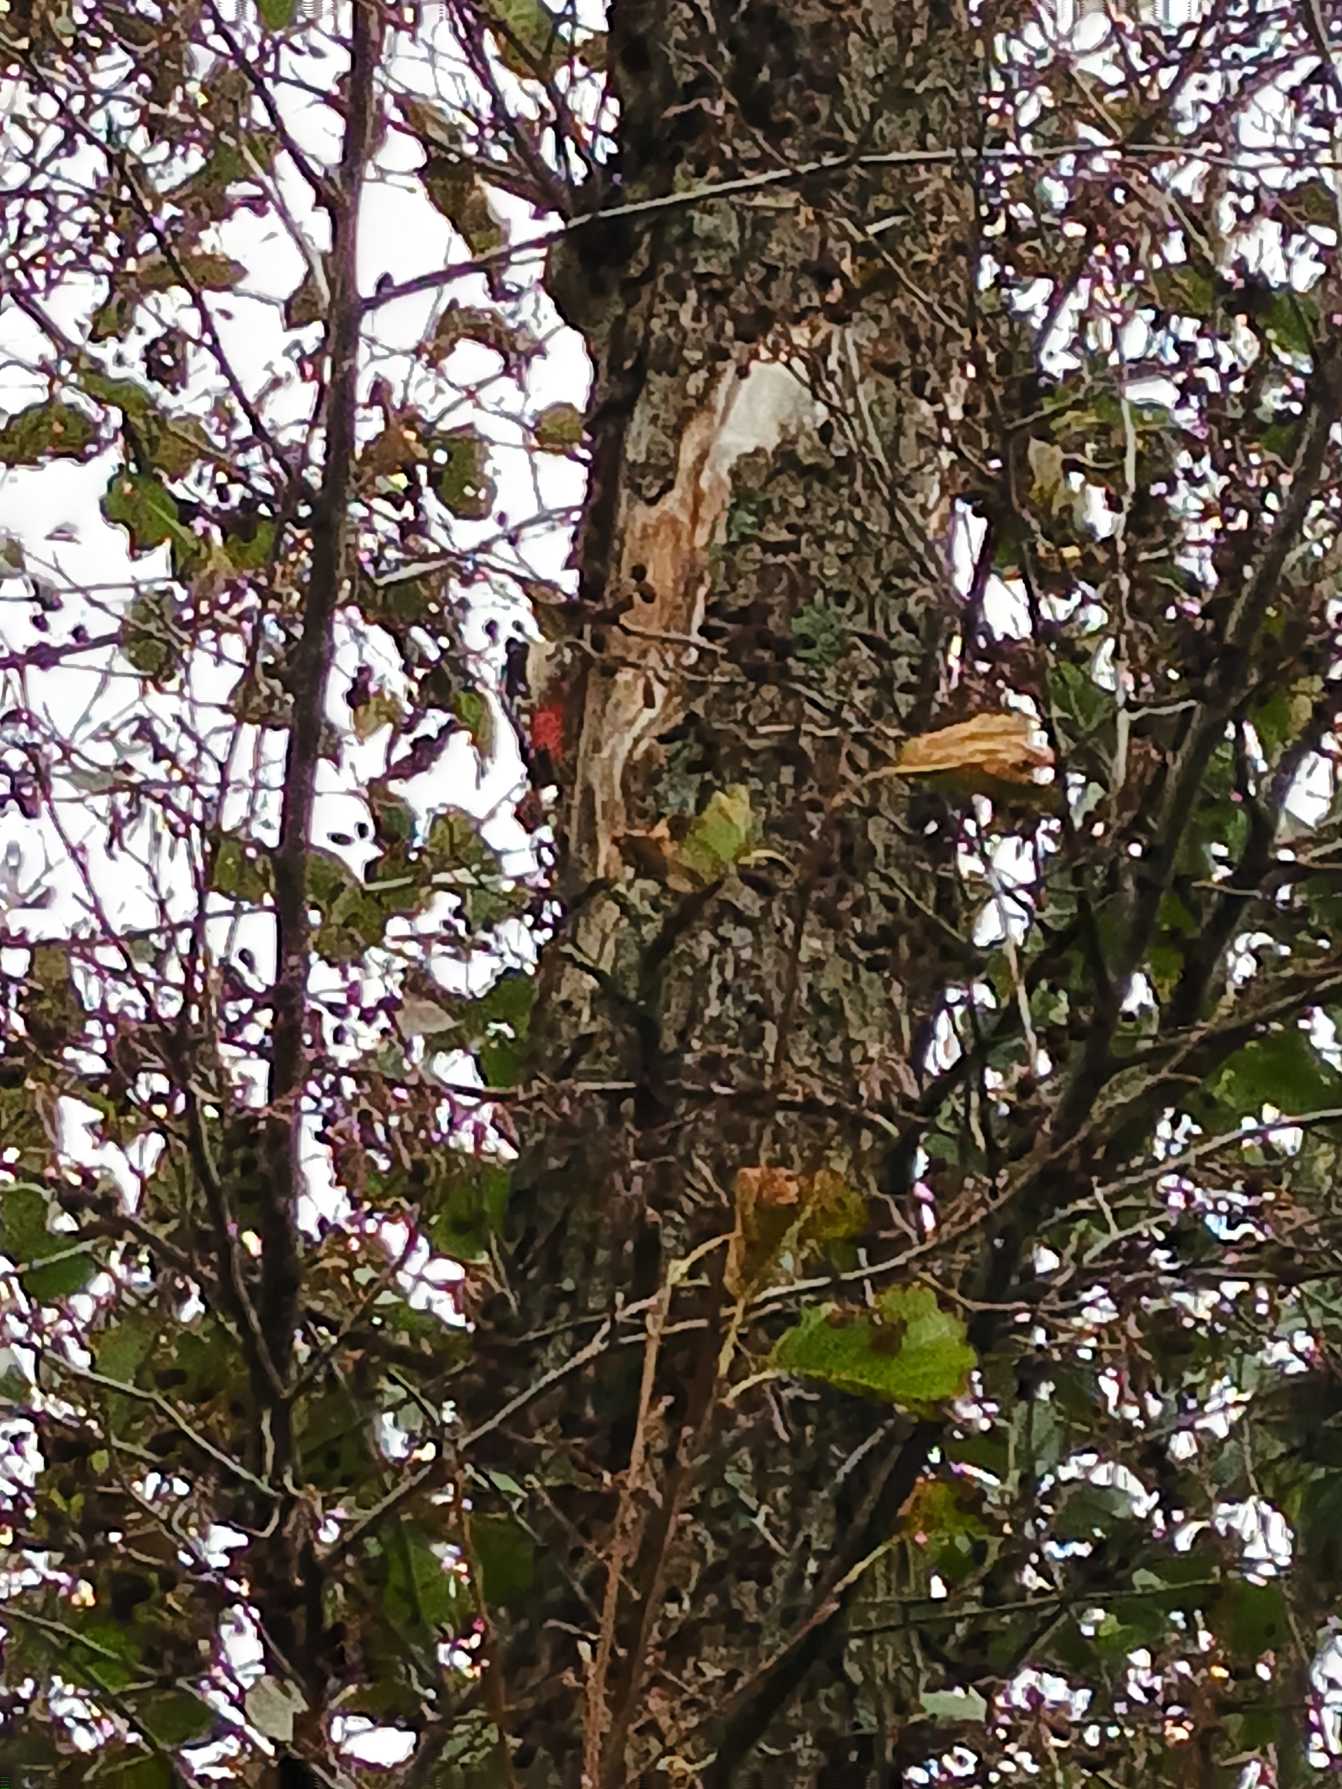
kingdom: Animalia
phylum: Chordata
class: Aves
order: Piciformes
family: Picidae
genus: Dendrocopos
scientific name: Dendrocopos major
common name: Stor flagspætte
